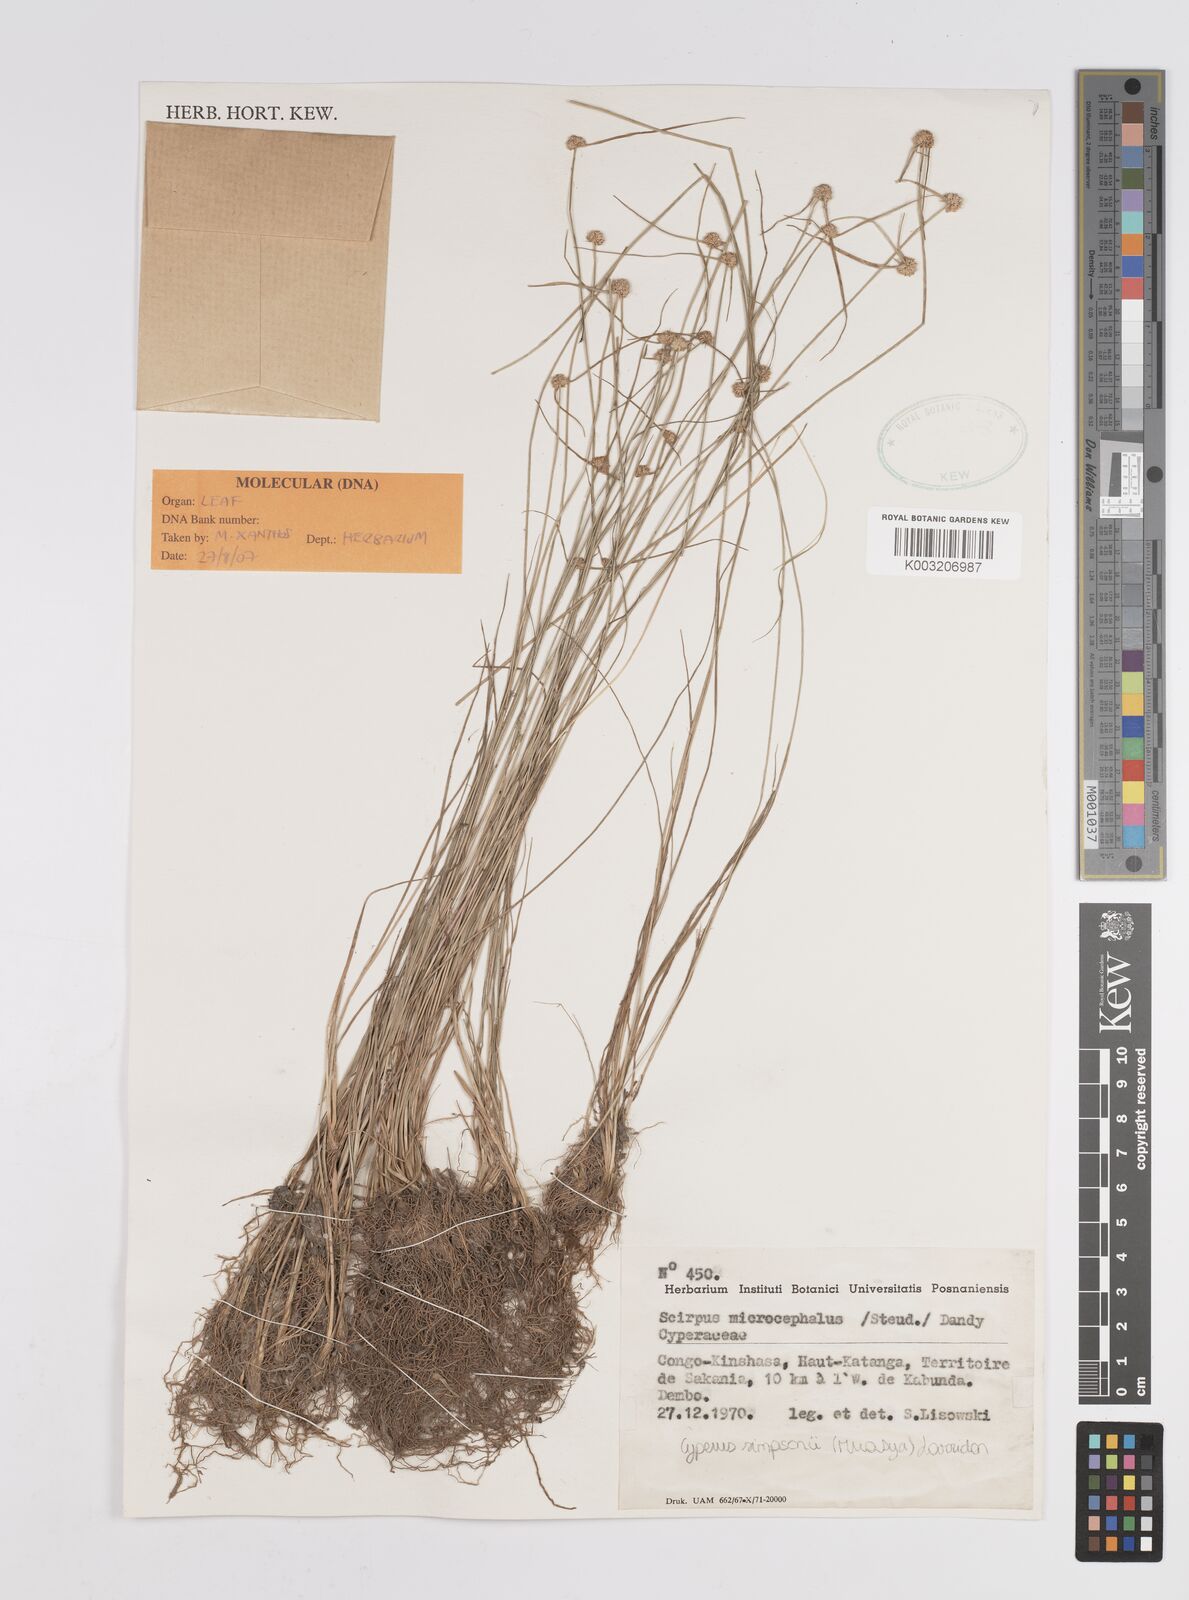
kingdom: Plantae
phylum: Tracheophyta
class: Liliopsida
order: Poales
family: Cyperaceae
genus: Cyperus
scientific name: Cyperus microcephalus
